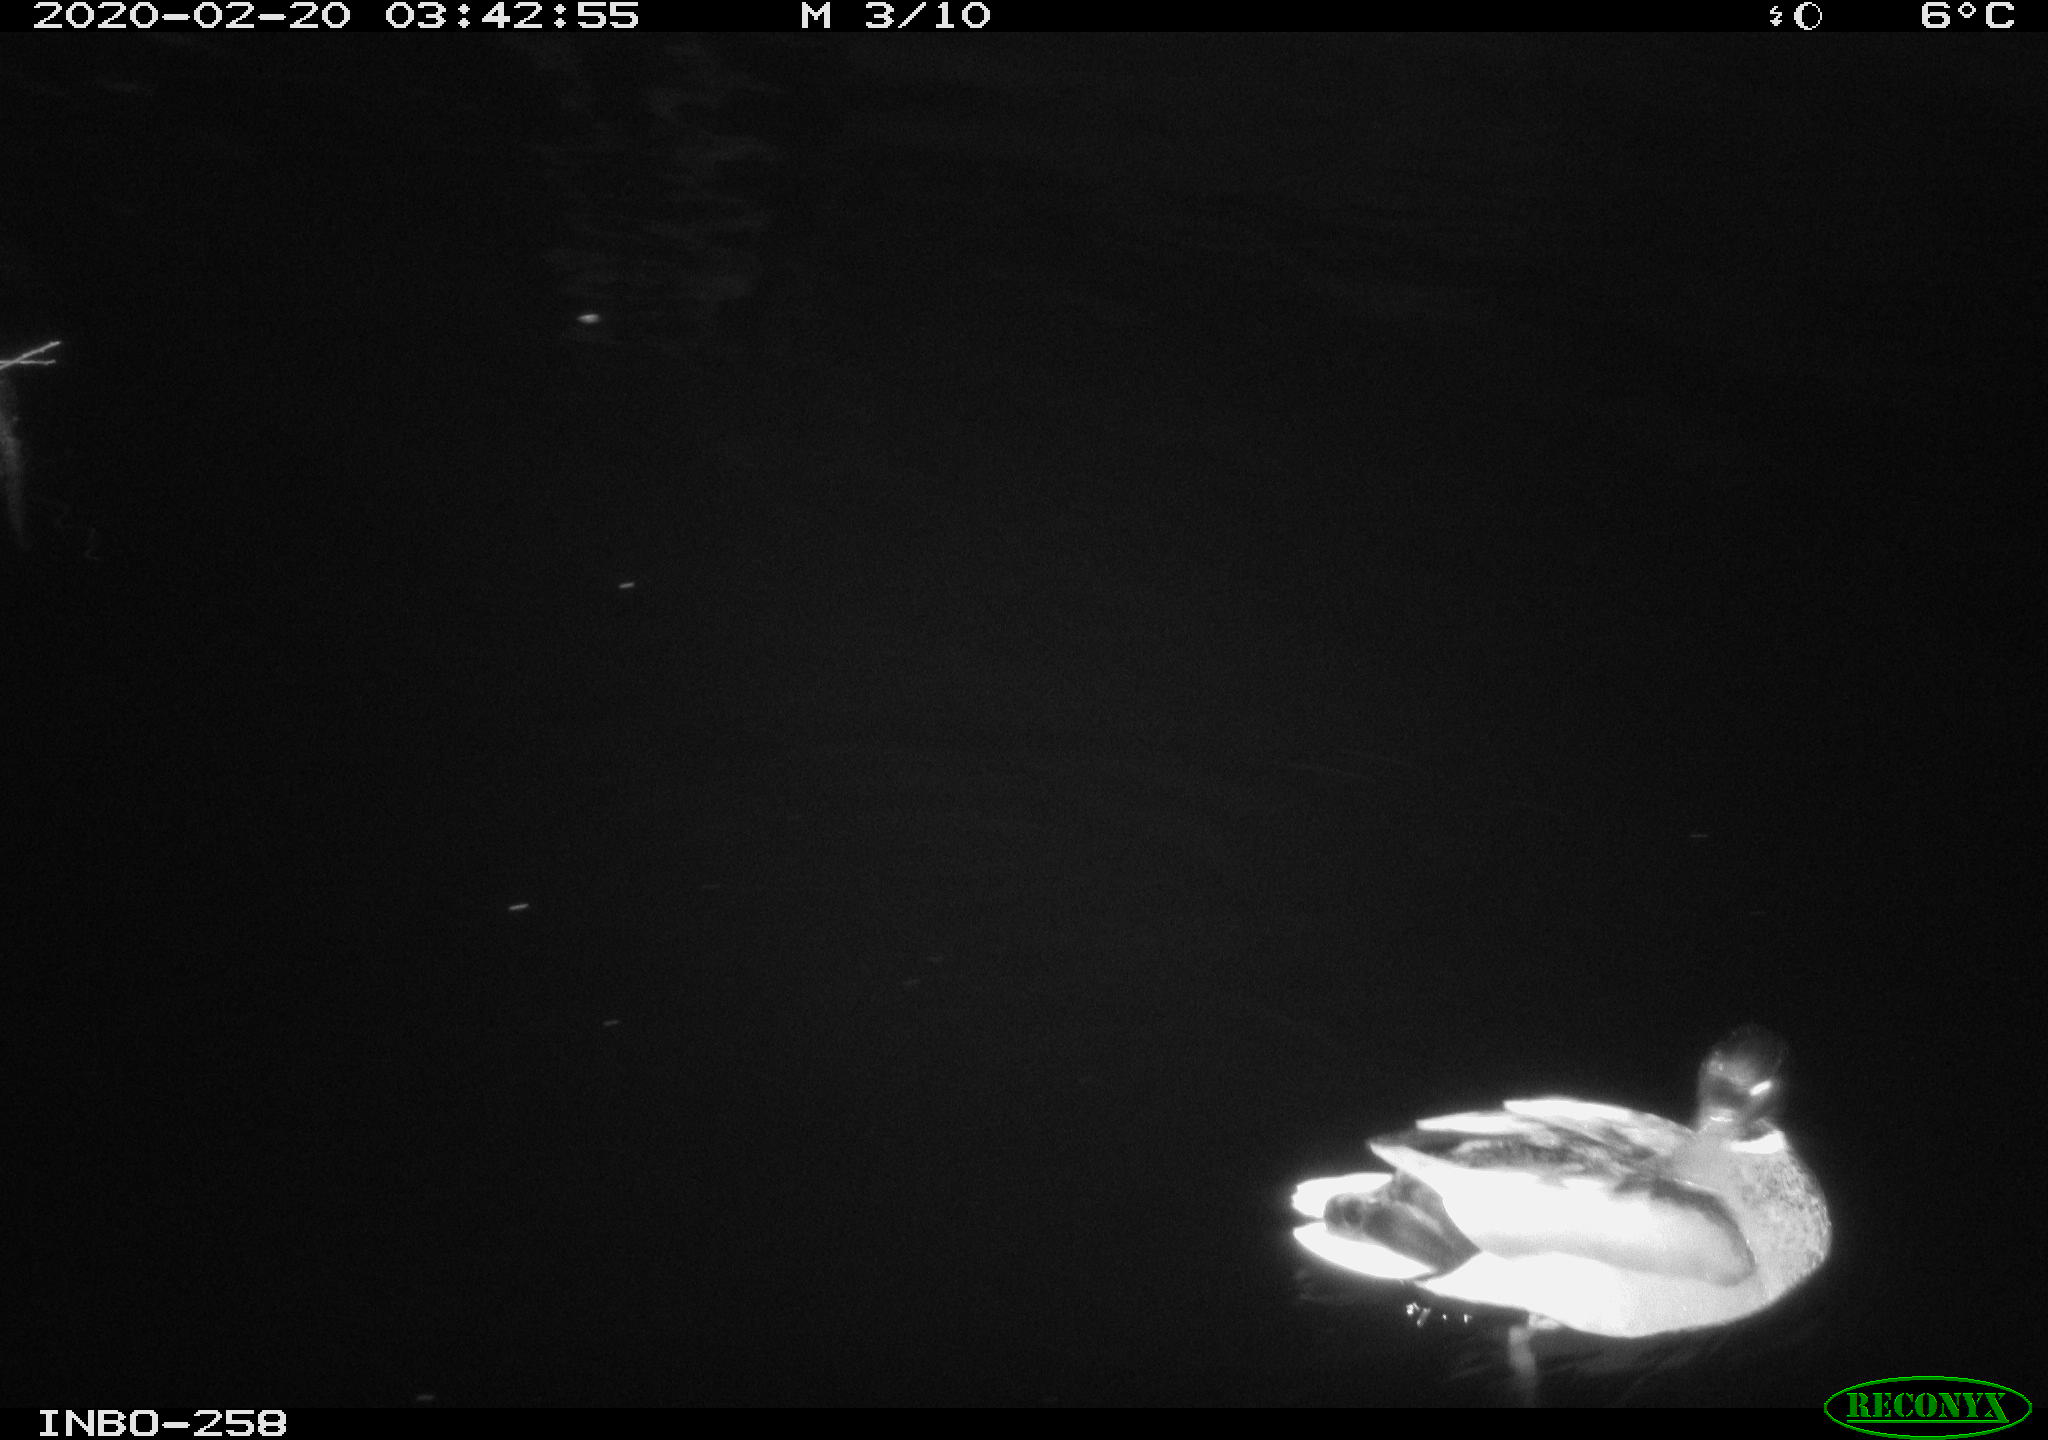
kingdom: Animalia
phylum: Chordata
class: Aves
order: Anseriformes
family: Anatidae
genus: Anas
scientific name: Anas platyrhynchos
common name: Mallard
